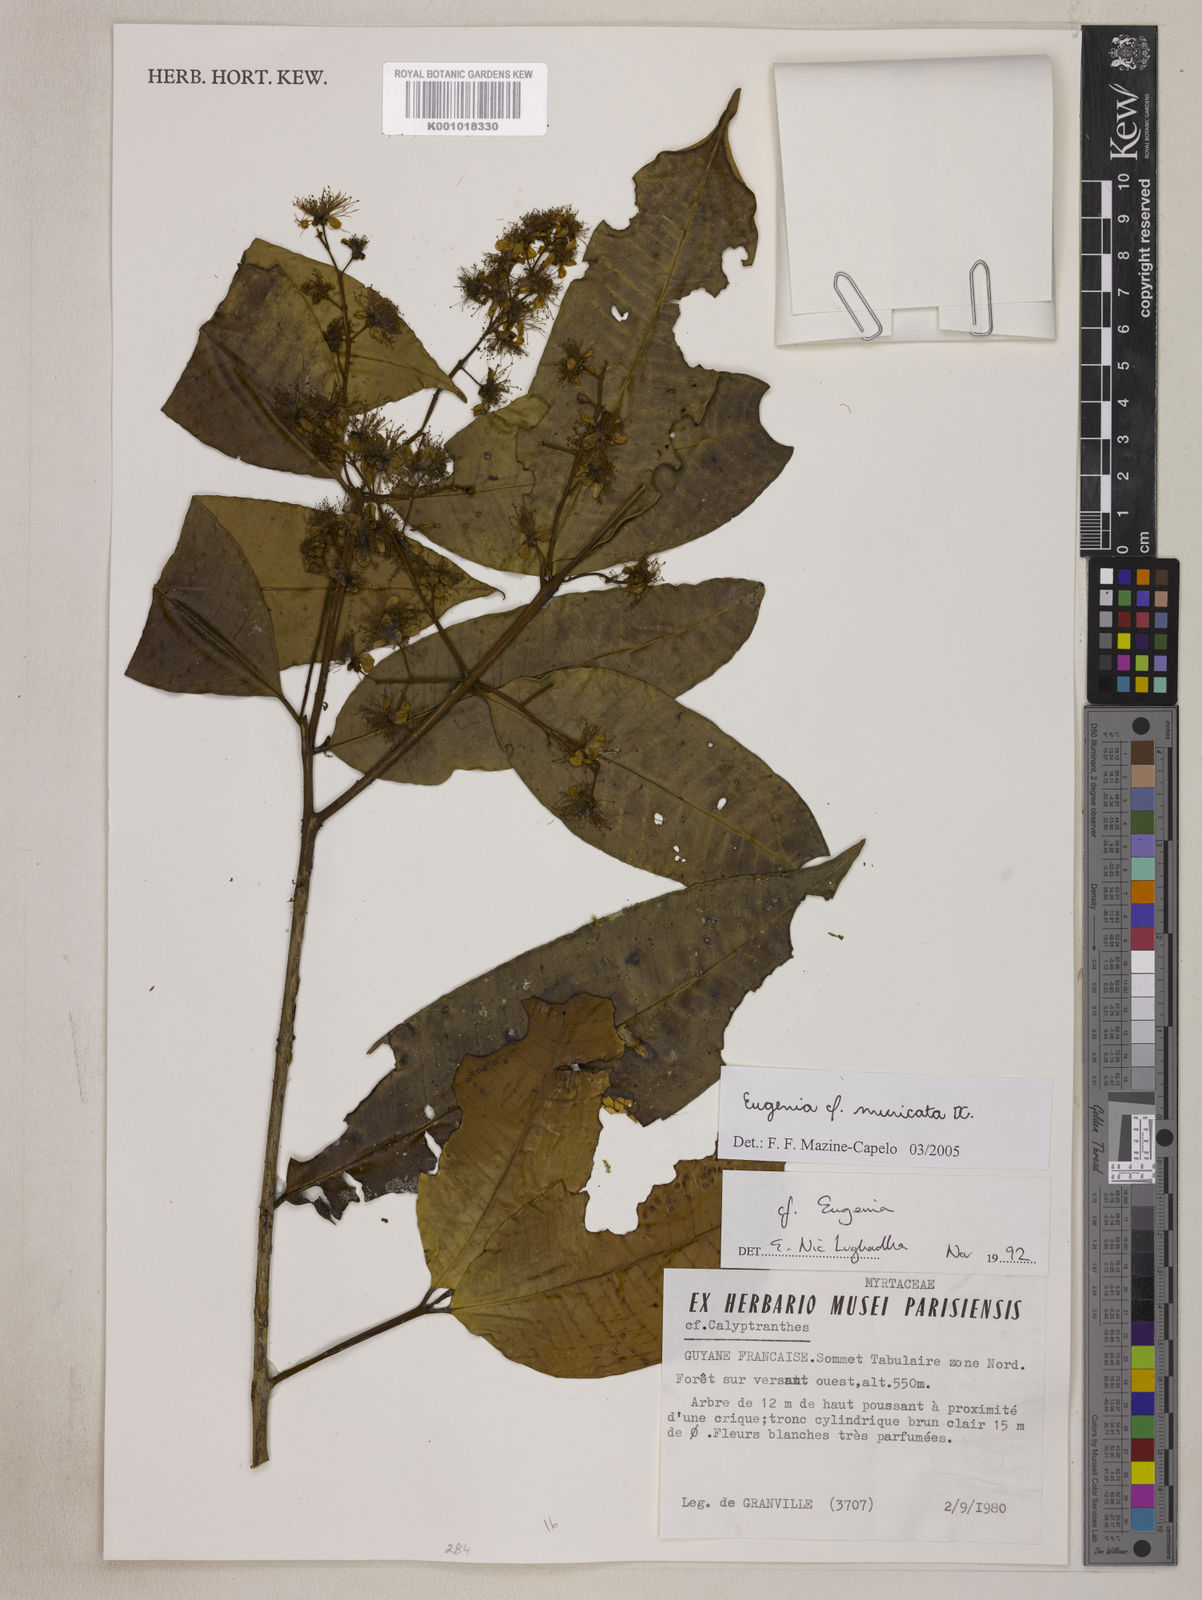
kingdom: Plantae
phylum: Tracheophyta
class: Magnoliopsida
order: Myrtales
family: Myrtaceae
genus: Eugenia
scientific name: Eugenia muricata
